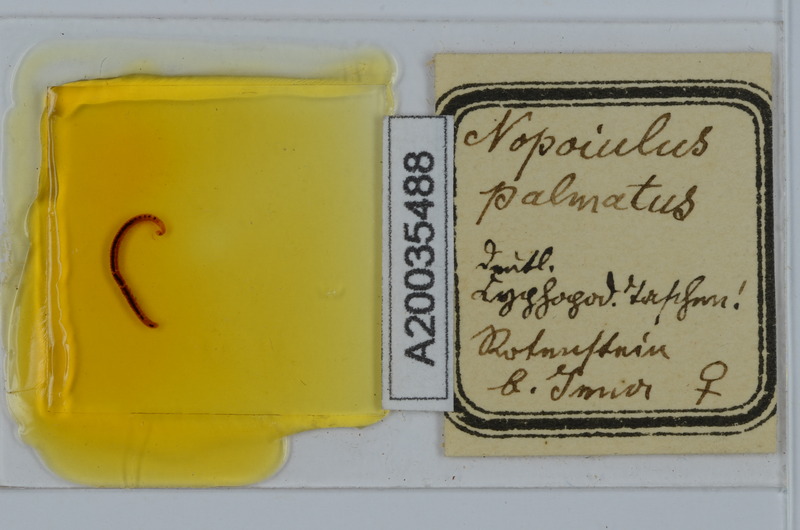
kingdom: Animalia
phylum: Arthropoda
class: Diplopoda
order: Julida
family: Blaniulidae
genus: Nopoiulus
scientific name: Nopoiulus palmatus
